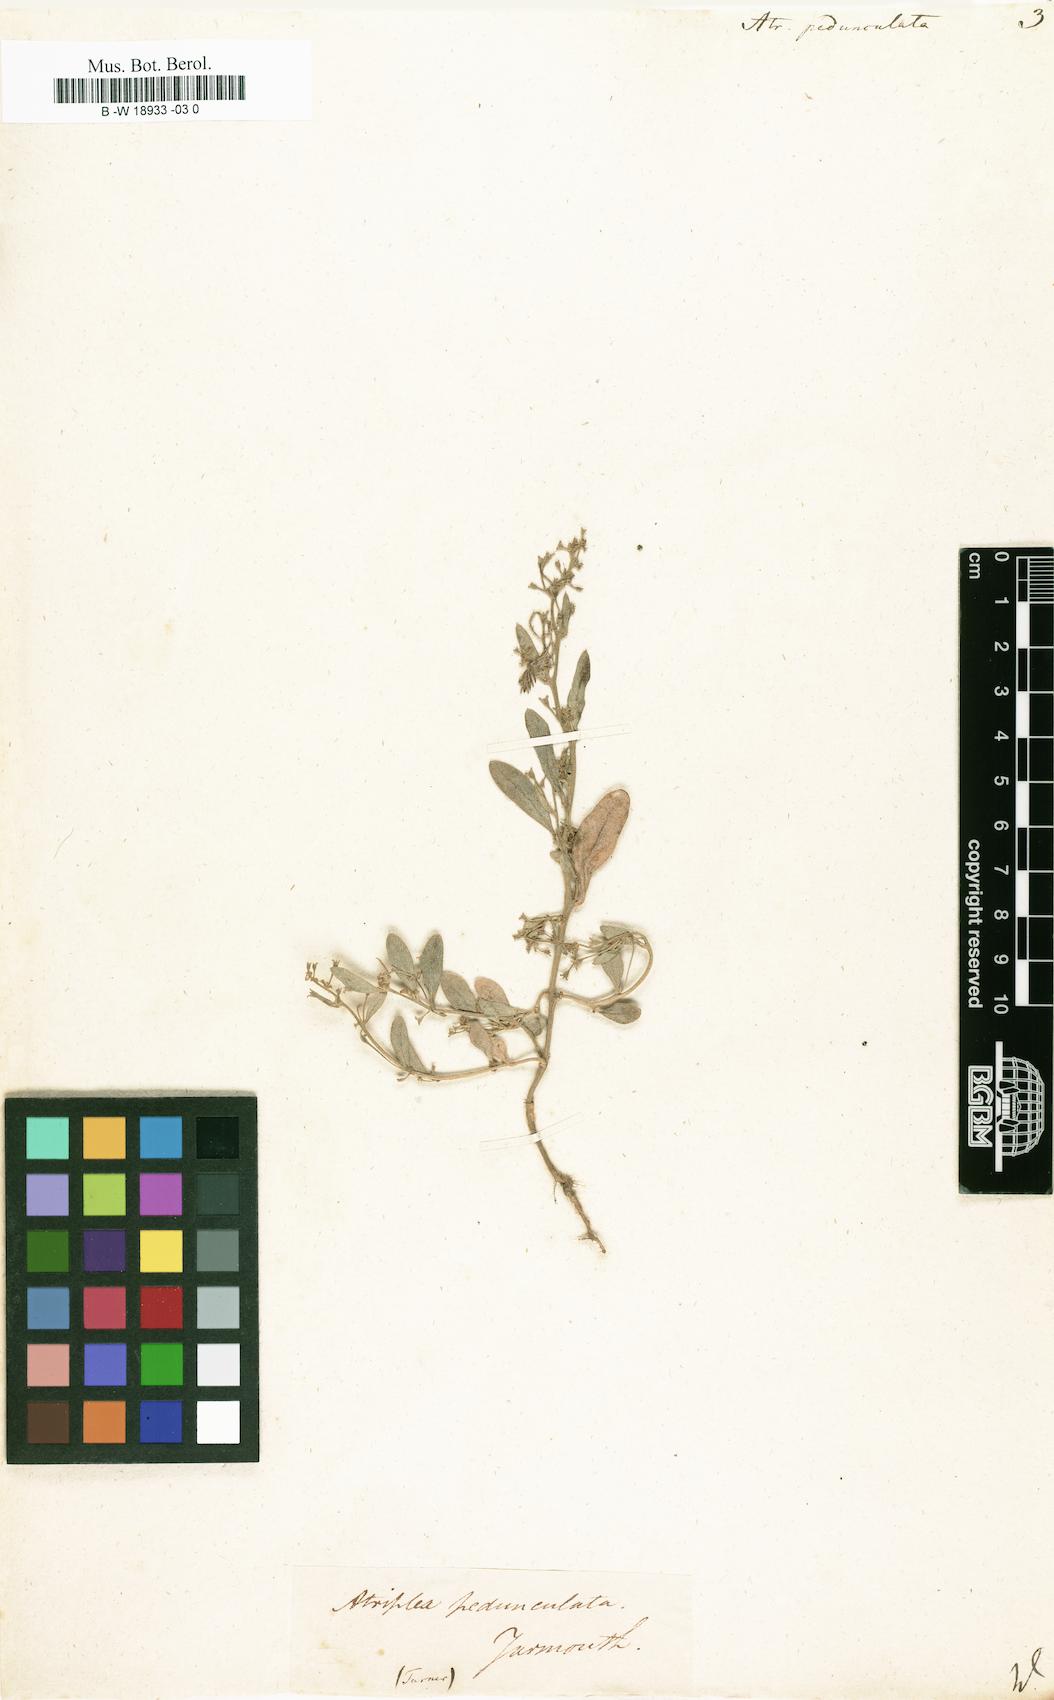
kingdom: Plantae
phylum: Tracheophyta
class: Magnoliopsida
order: Caryophyllales
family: Amaranthaceae
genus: Halimione
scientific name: Halimione pedunculata
